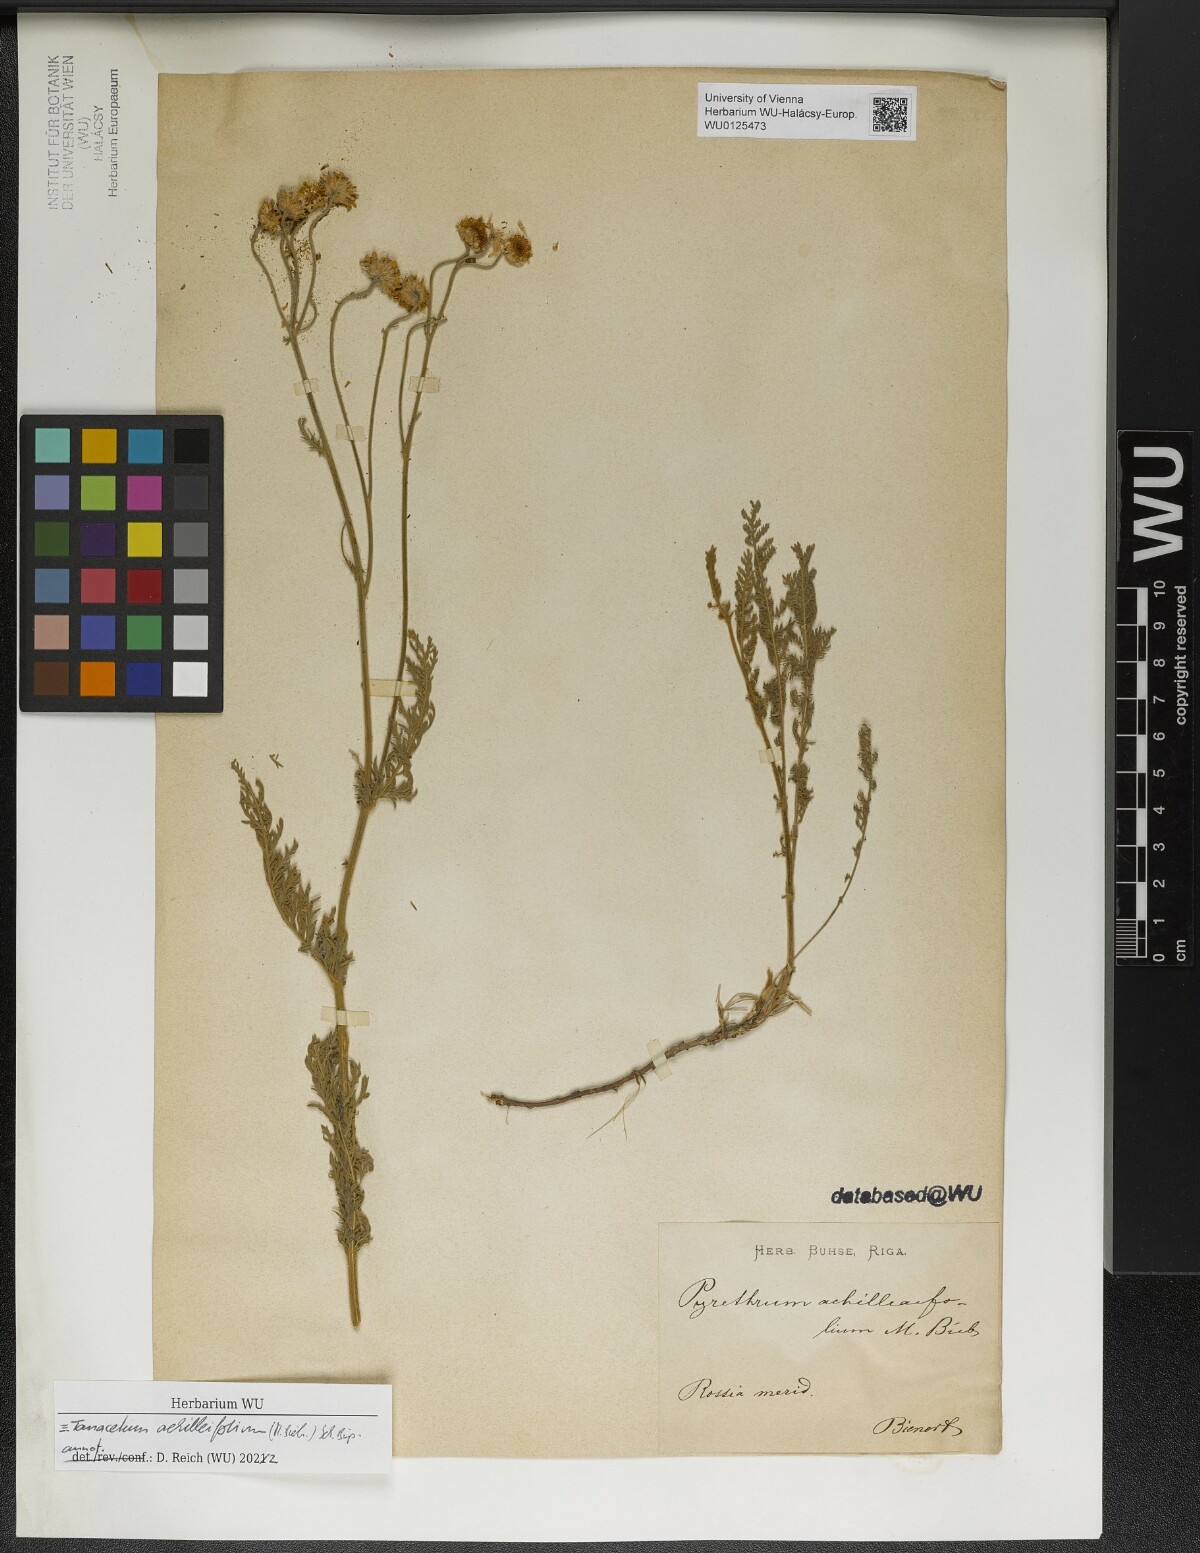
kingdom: Plantae
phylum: Tracheophyta
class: Magnoliopsida
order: Asterales
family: Asteraceae
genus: Tanacetum
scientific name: Tanacetum achilleifolium
